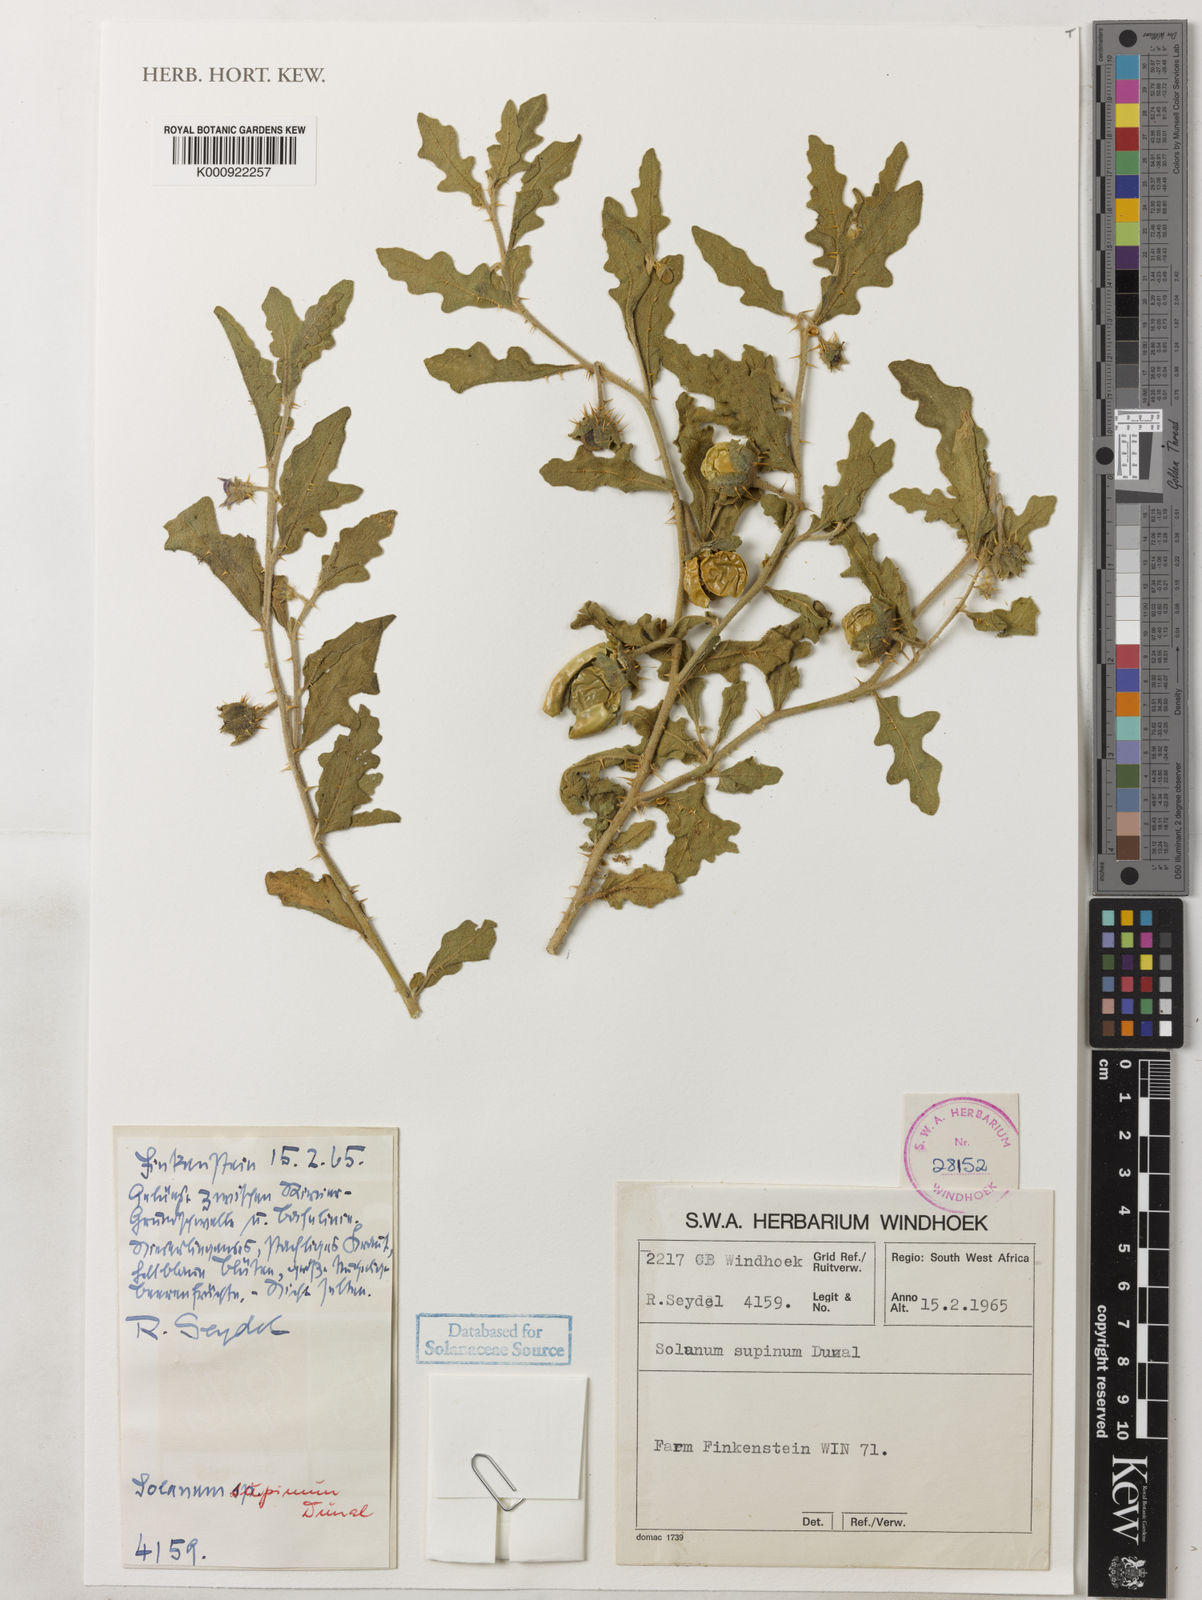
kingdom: Plantae
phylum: Tracheophyta
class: Magnoliopsida
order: Solanales
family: Solanaceae
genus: Solanum
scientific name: Solanum supinum
